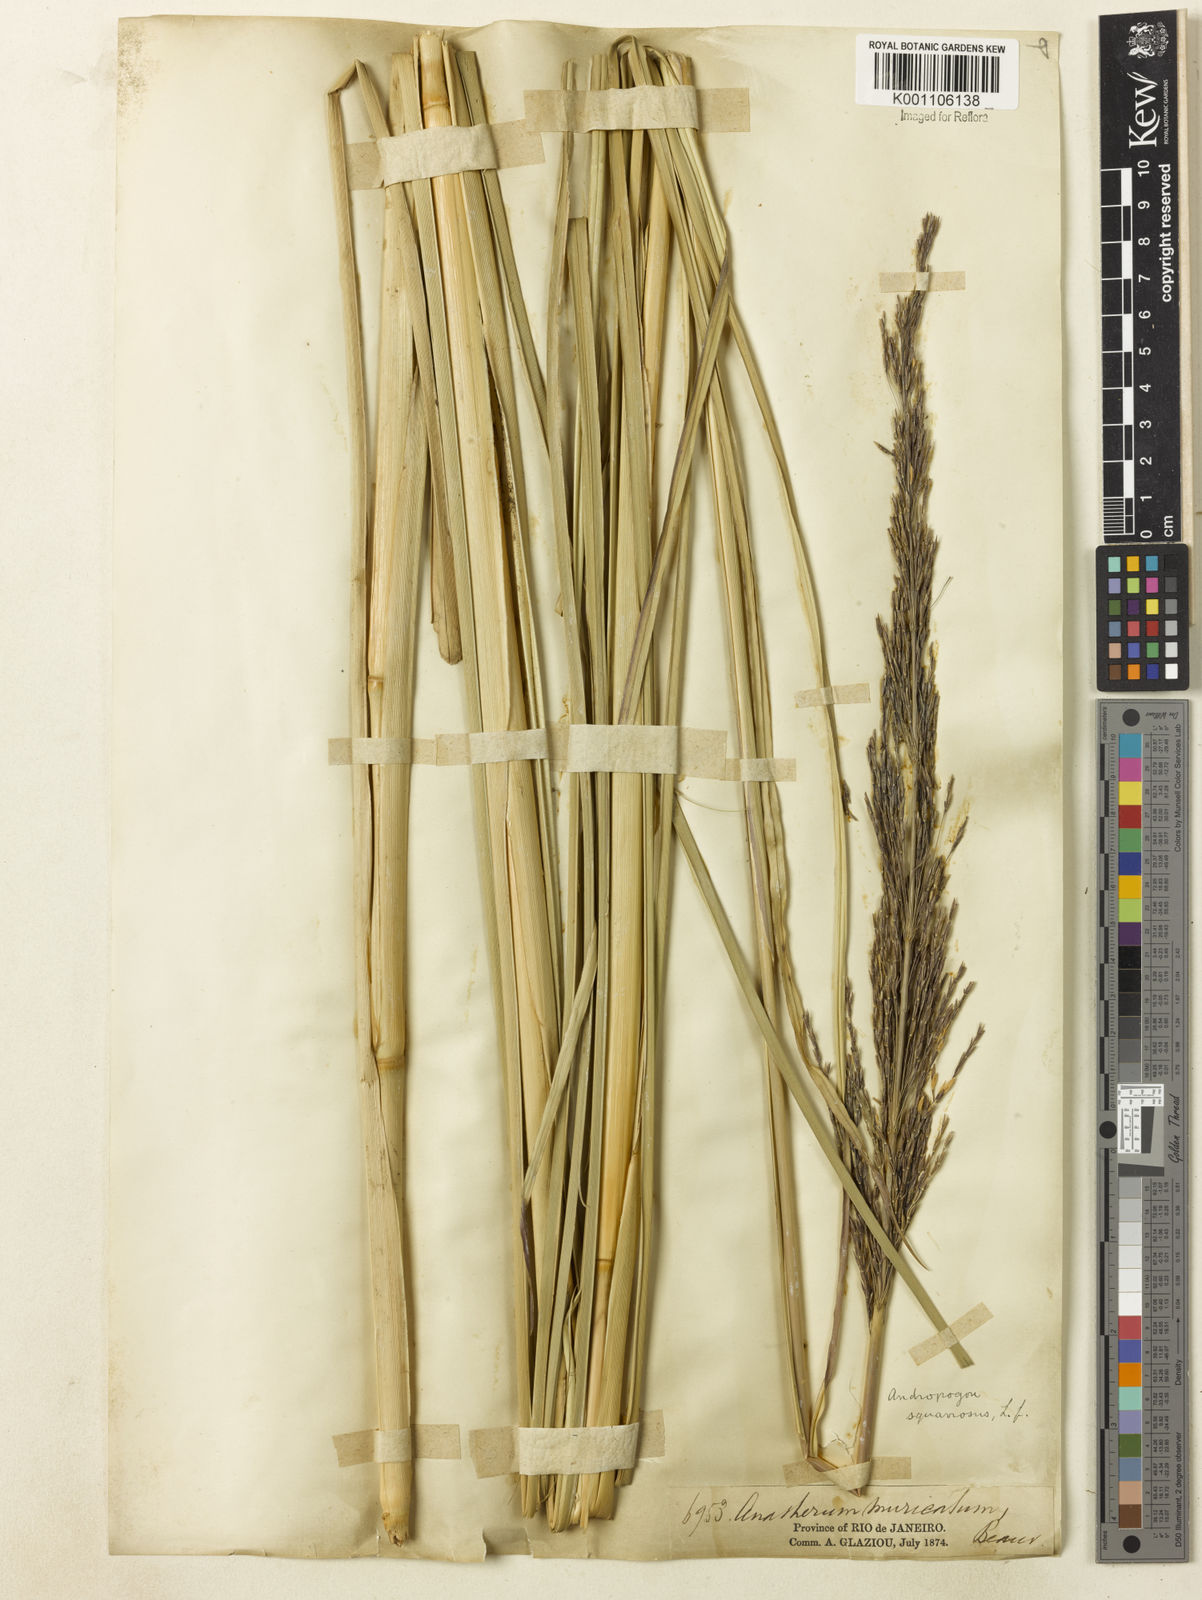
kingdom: Plantae
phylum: Tracheophyta
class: Liliopsida
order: Poales
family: Poaceae
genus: Chrysopogon
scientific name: Chrysopogon zizanioides
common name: False beardgrass
